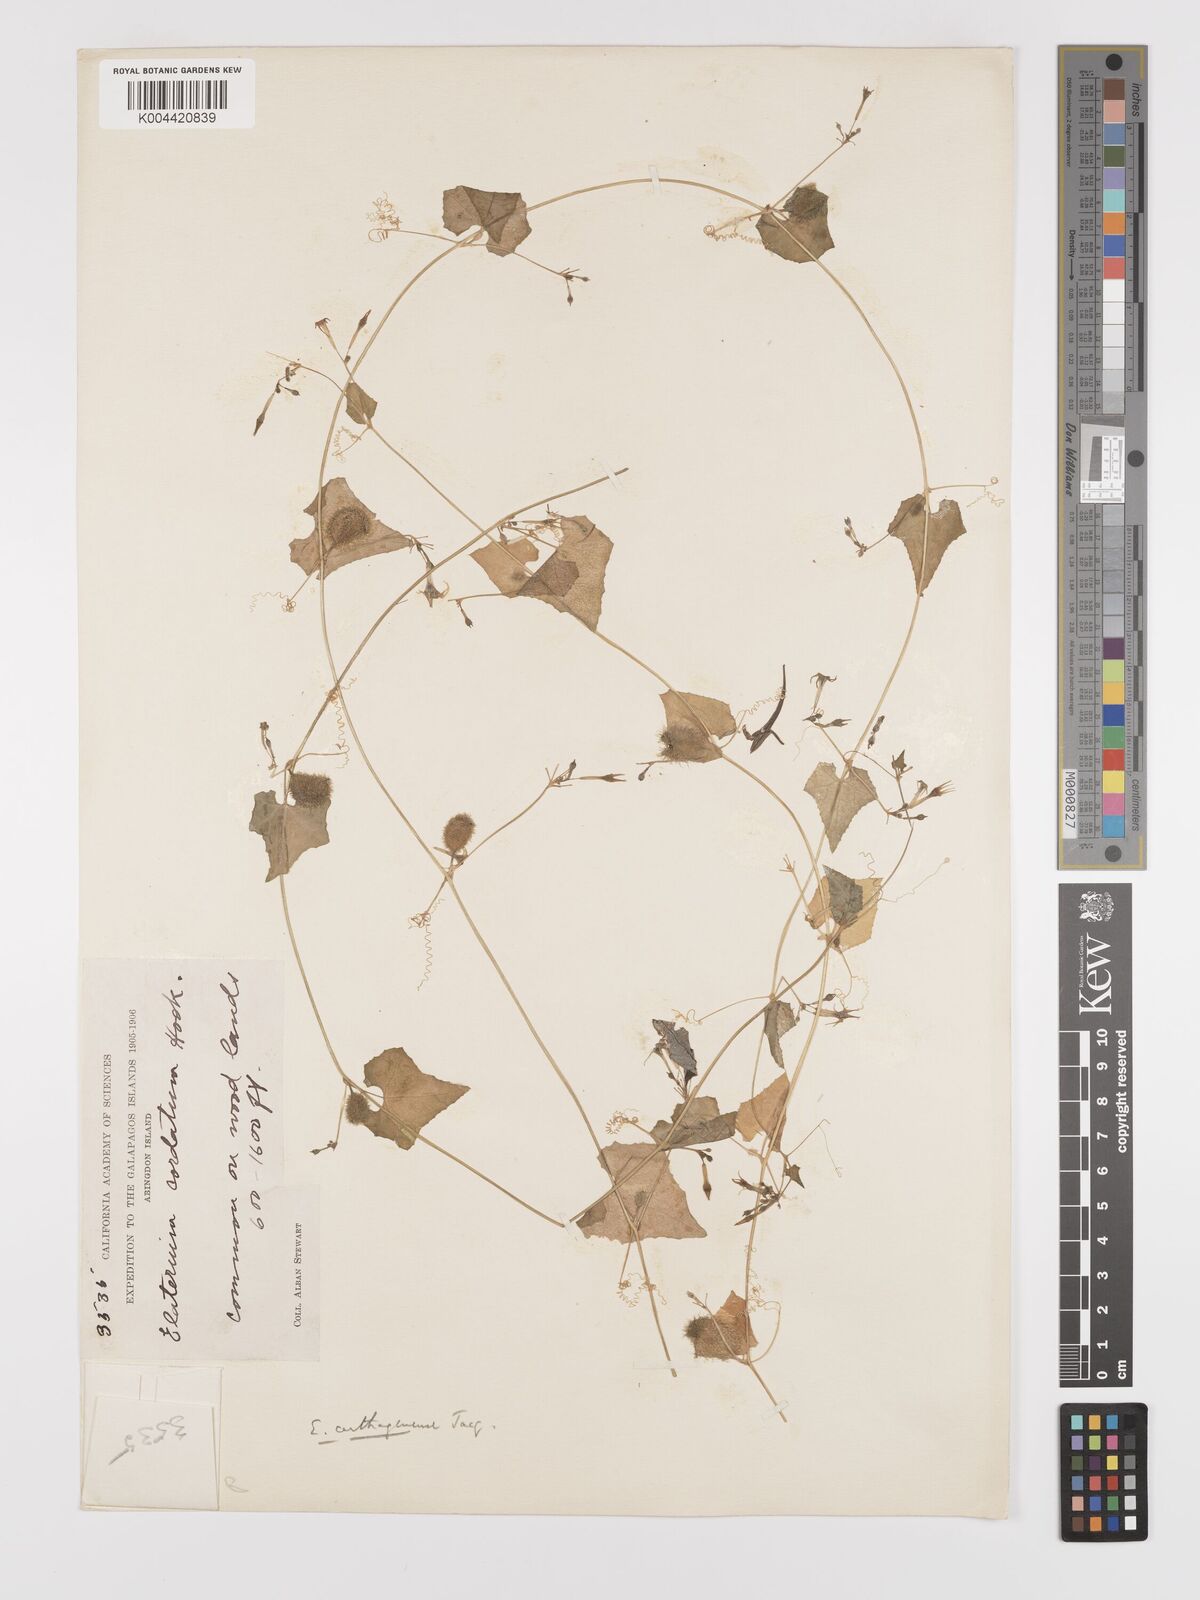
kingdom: Plantae
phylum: Tracheophyta
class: Magnoliopsida
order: Cucurbitales
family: Cucurbitaceae
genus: Cyclanthera
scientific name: Cyclanthera carthagenensis
